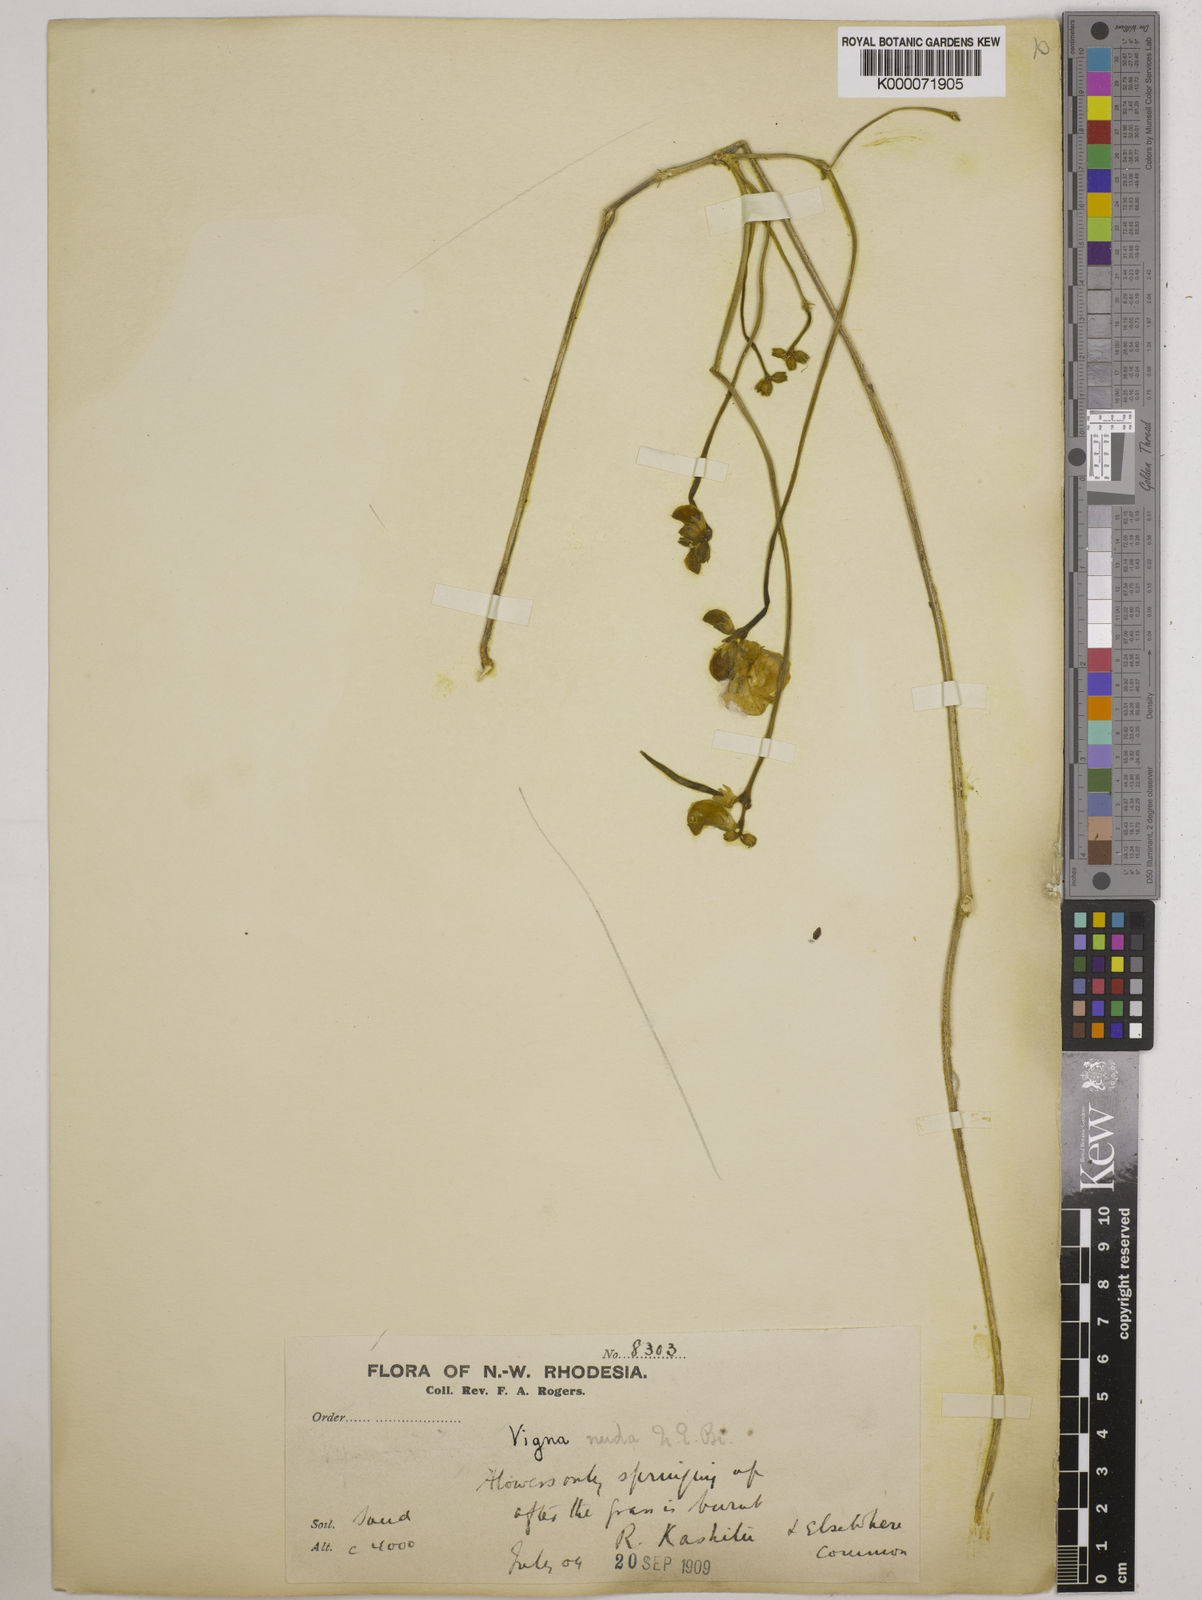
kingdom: Plantae
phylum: Tracheophyta
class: Magnoliopsida
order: Fabales
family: Fabaceae
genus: Vigna
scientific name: Vigna antunesii
